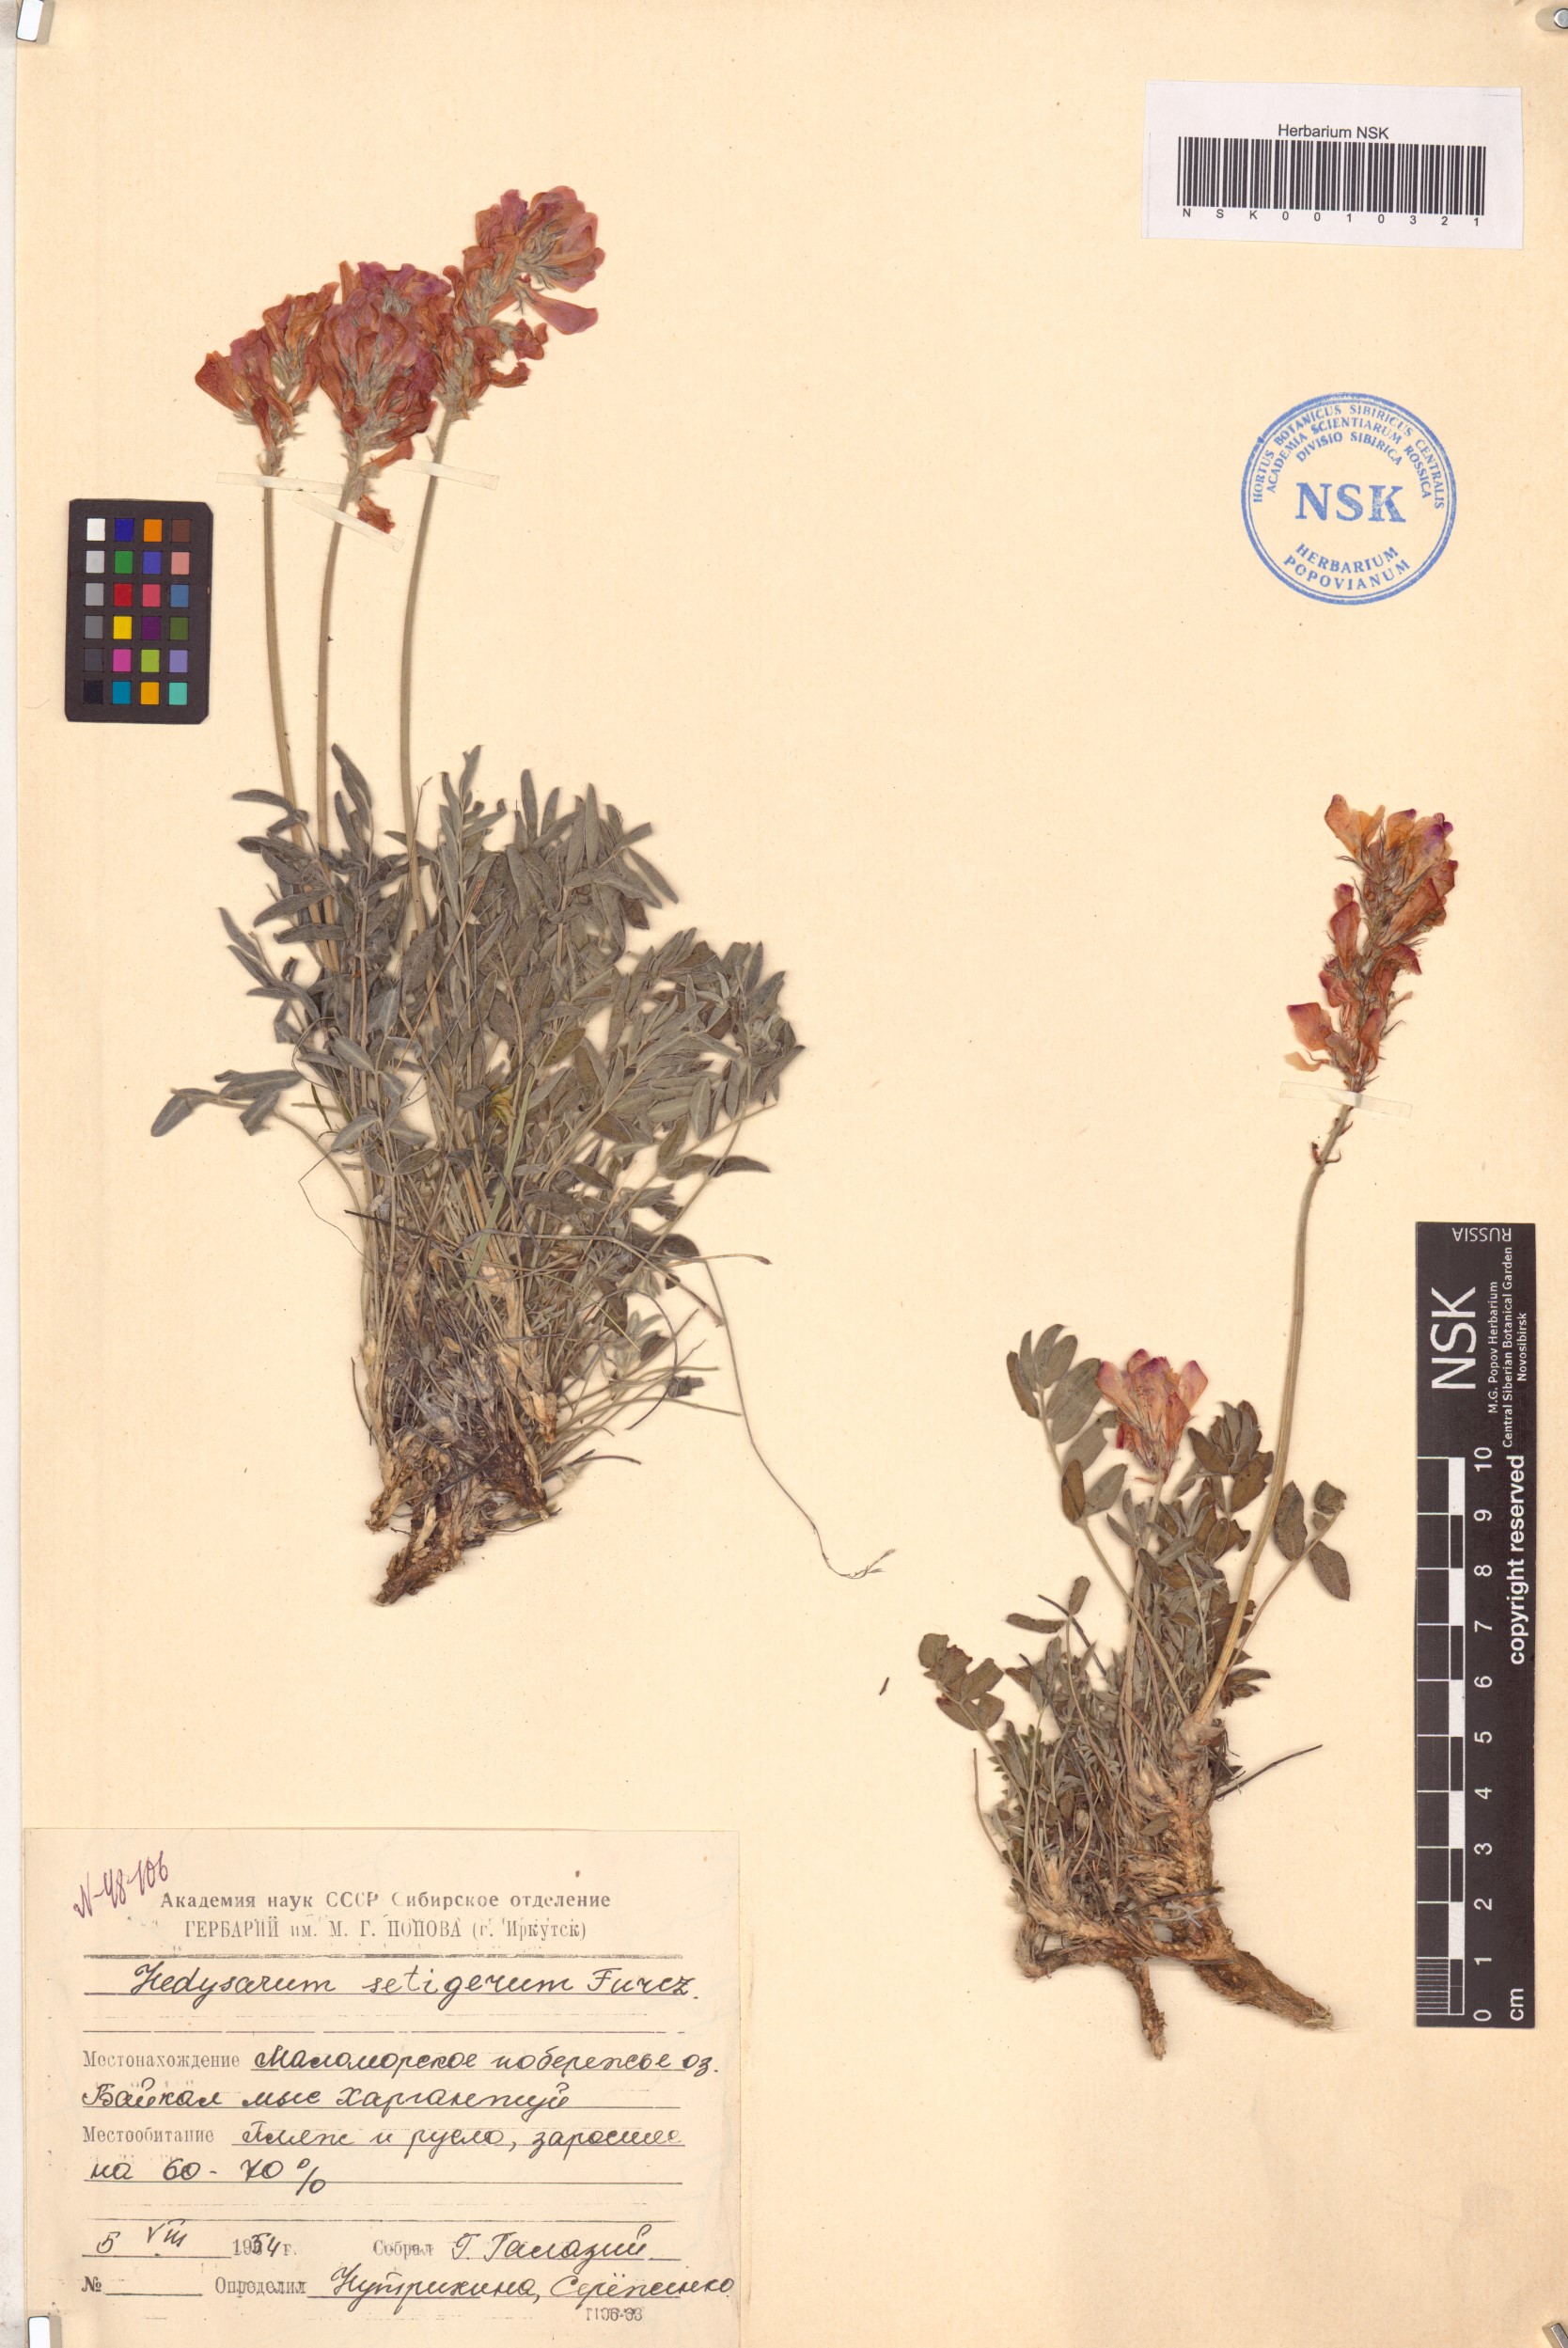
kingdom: Plantae
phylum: Tracheophyta
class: Magnoliopsida
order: Fabales
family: Fabaceae
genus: Hedysarum
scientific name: Hedysarum setigerum
